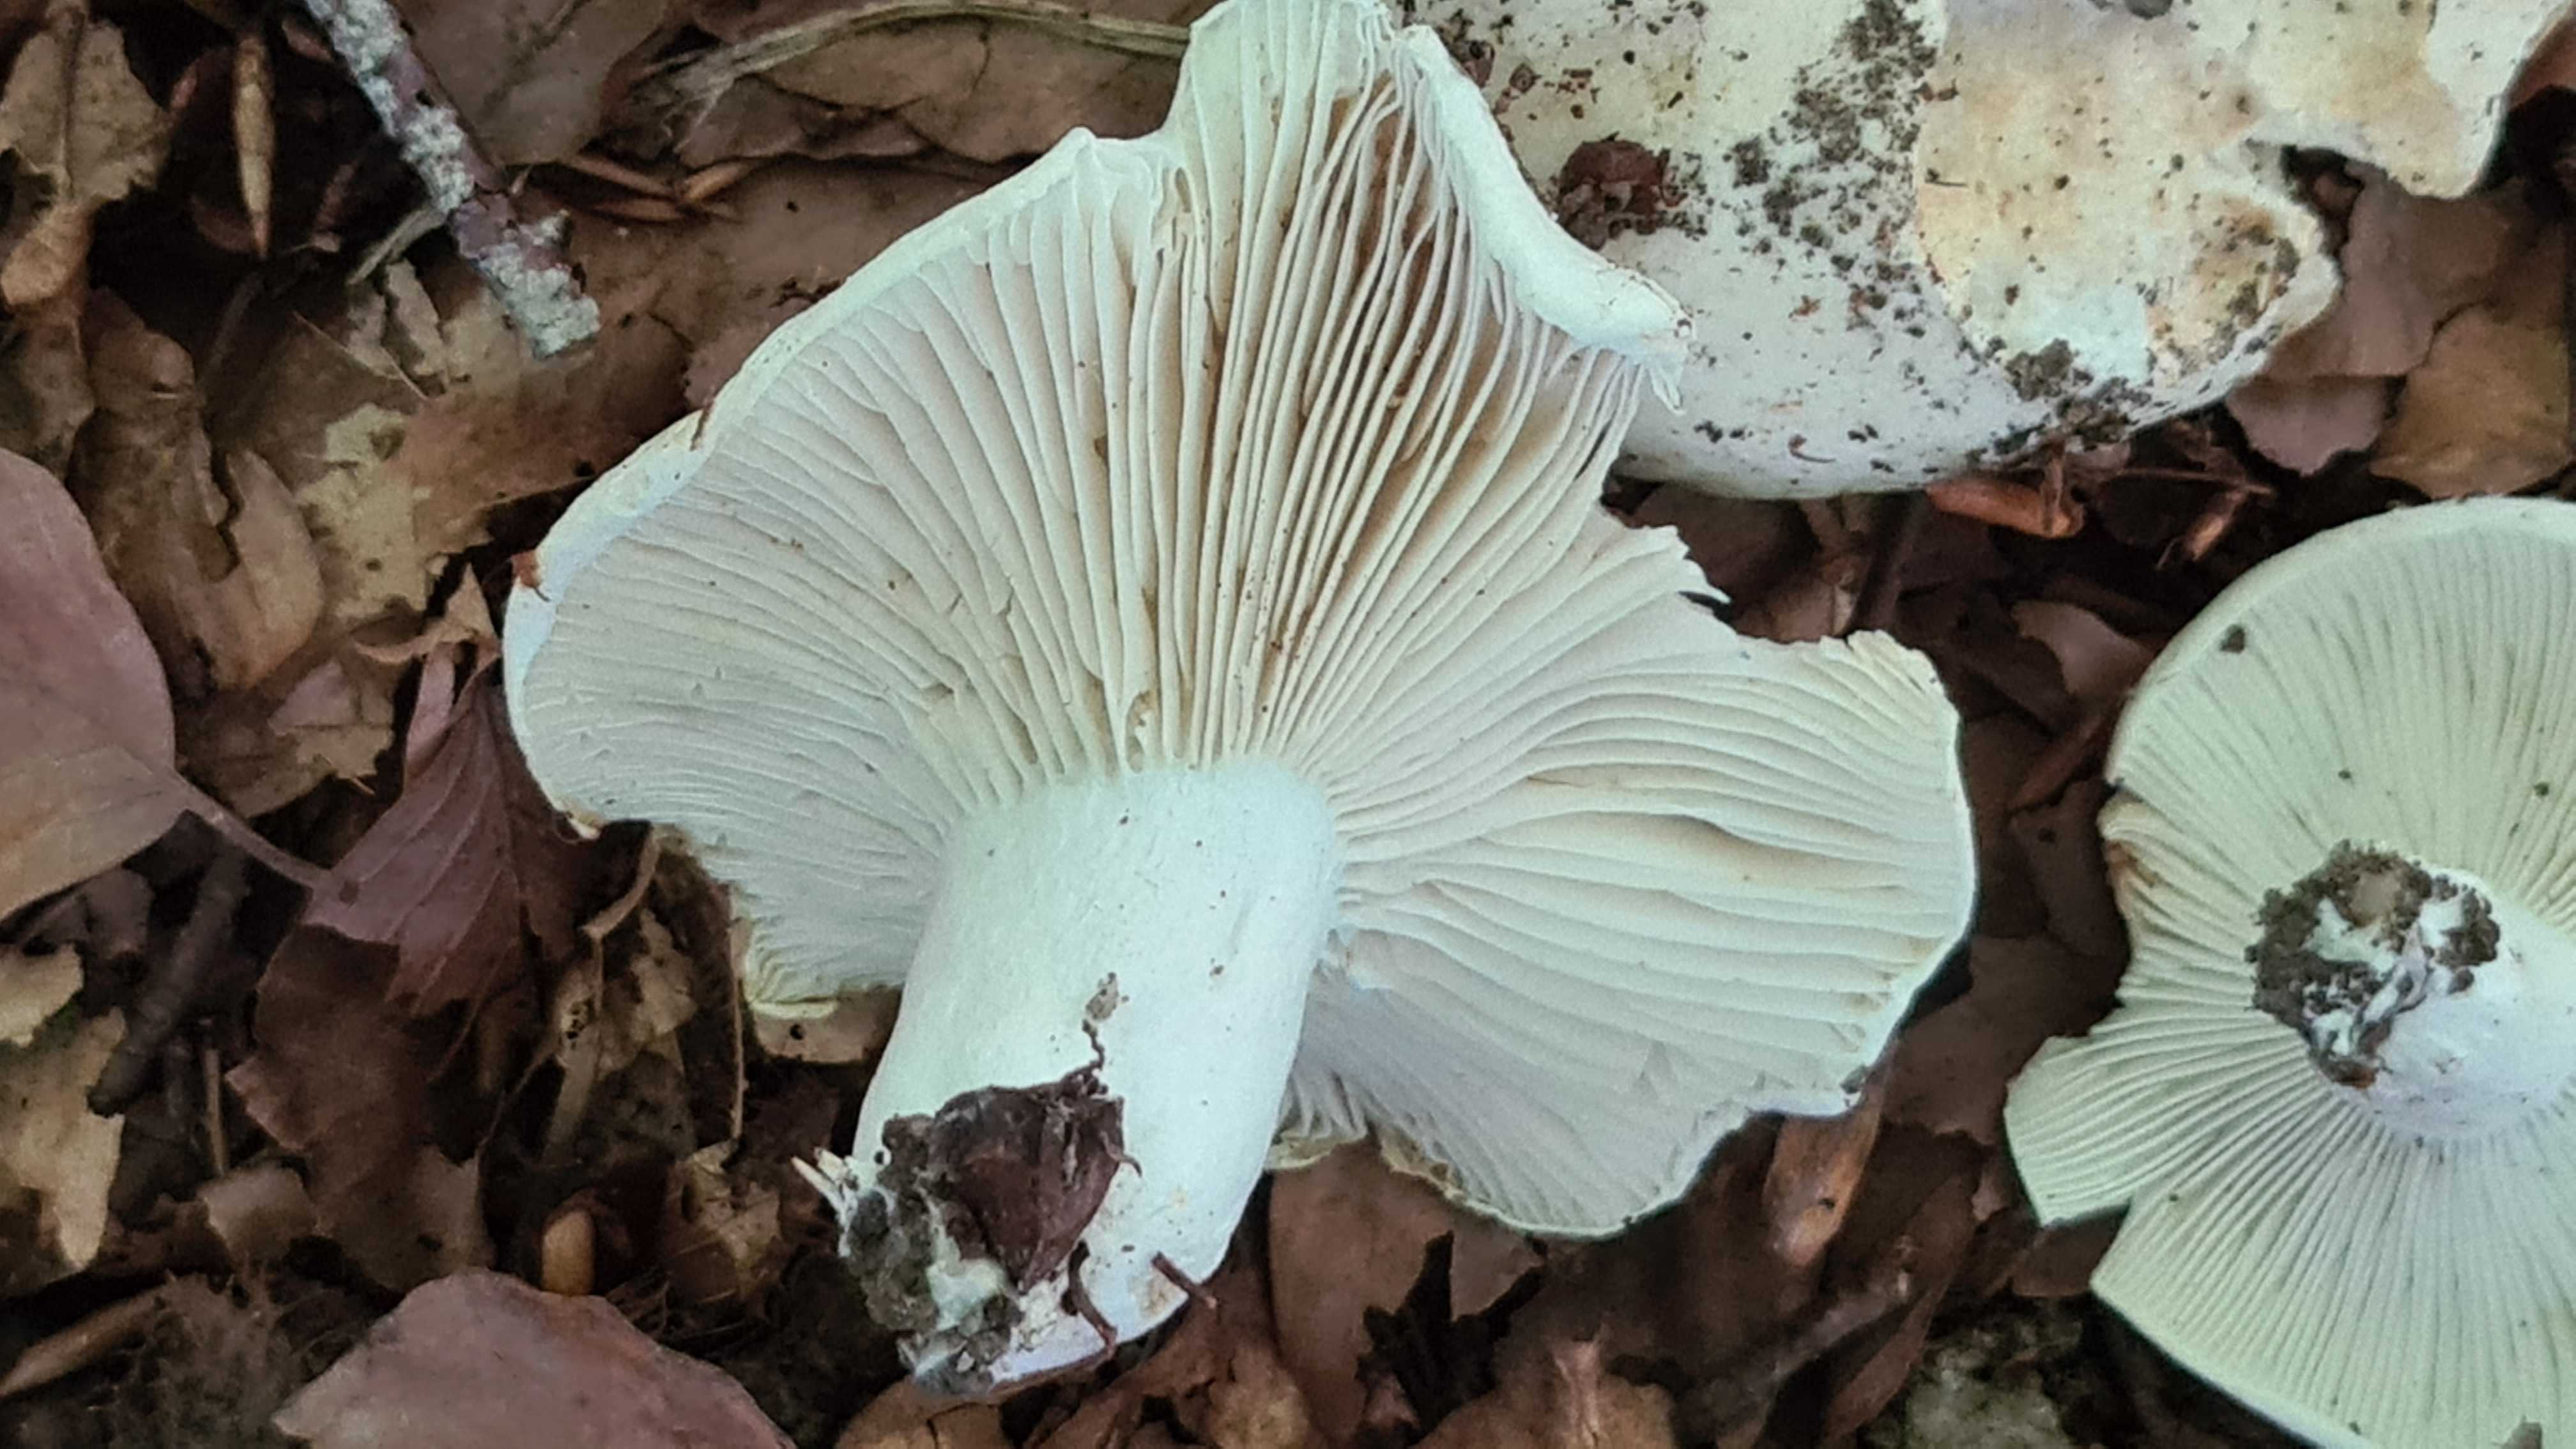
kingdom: Fungi
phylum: Basidiomycota
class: Agaricomycetes
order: Russulales
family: Russulaceae
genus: Russula
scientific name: Russula chloroides
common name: grønhalset tragt-skørhat
